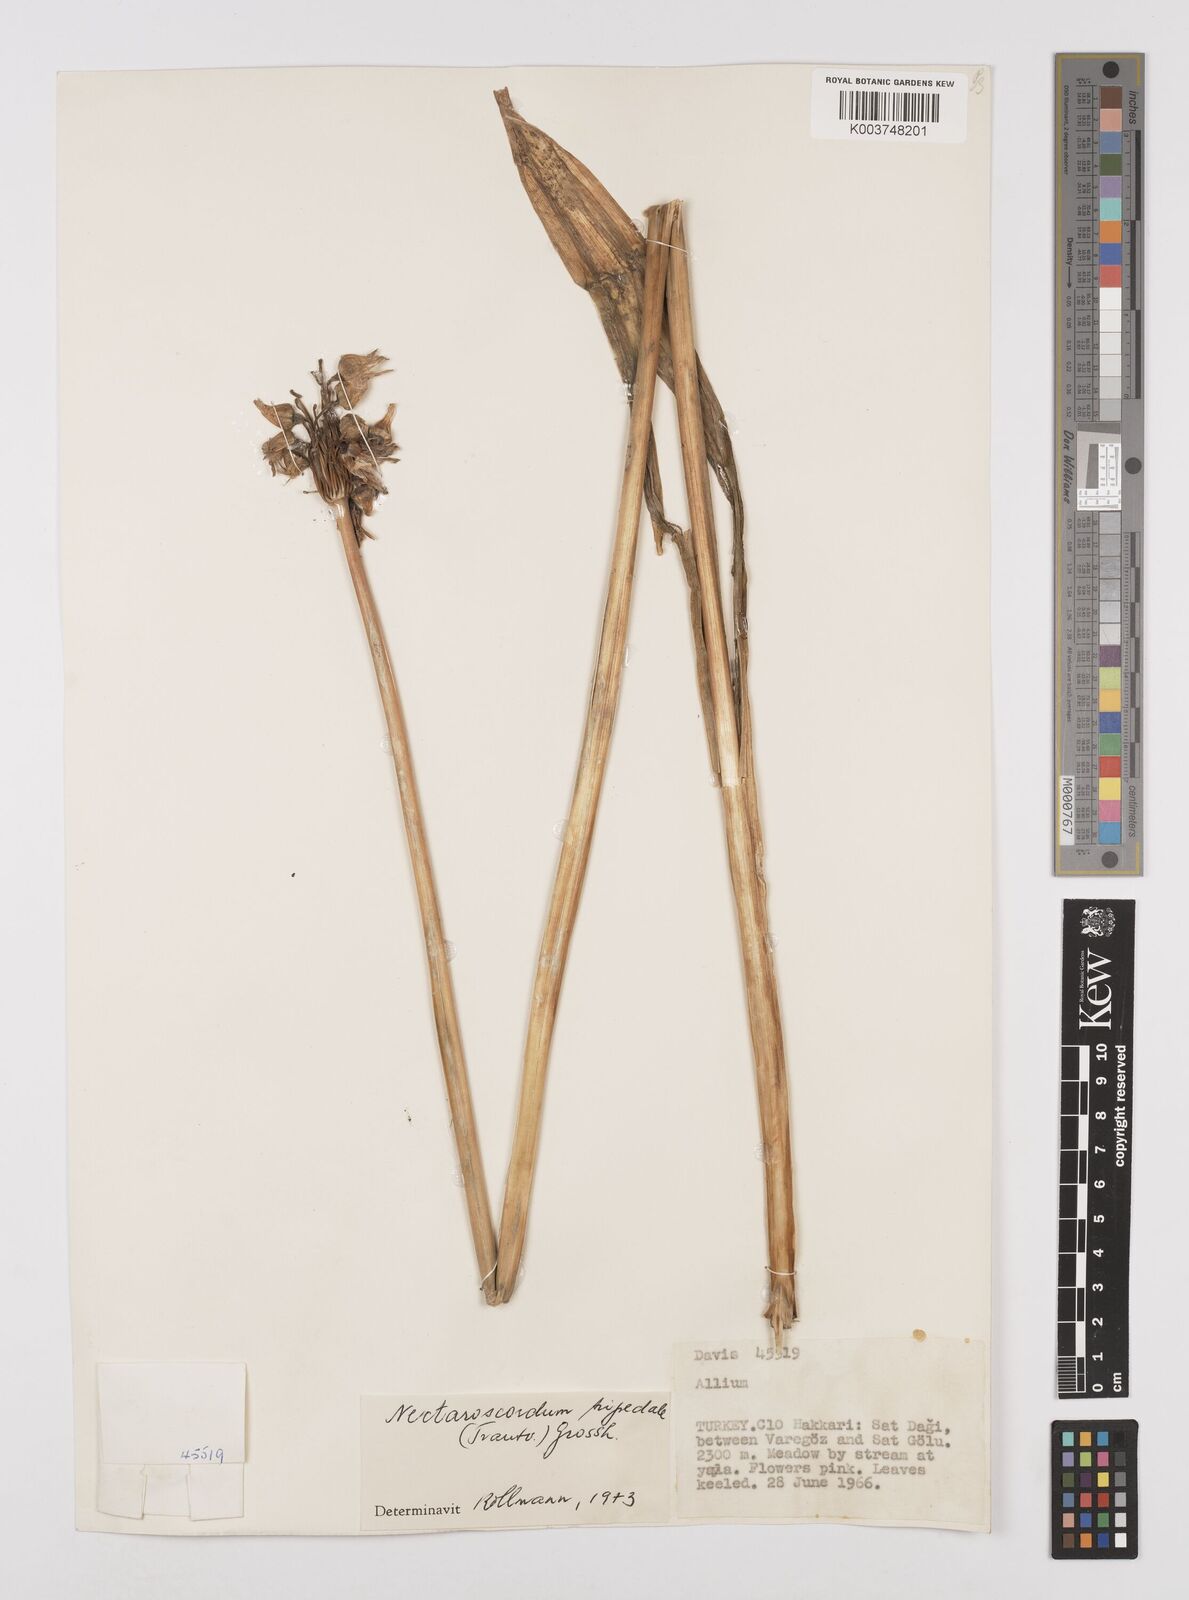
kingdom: Plantae
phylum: Tracheophyta
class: Liliopsida
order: Asparagales
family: Amaryllidaceae
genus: Allium
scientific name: Allium tripedale
